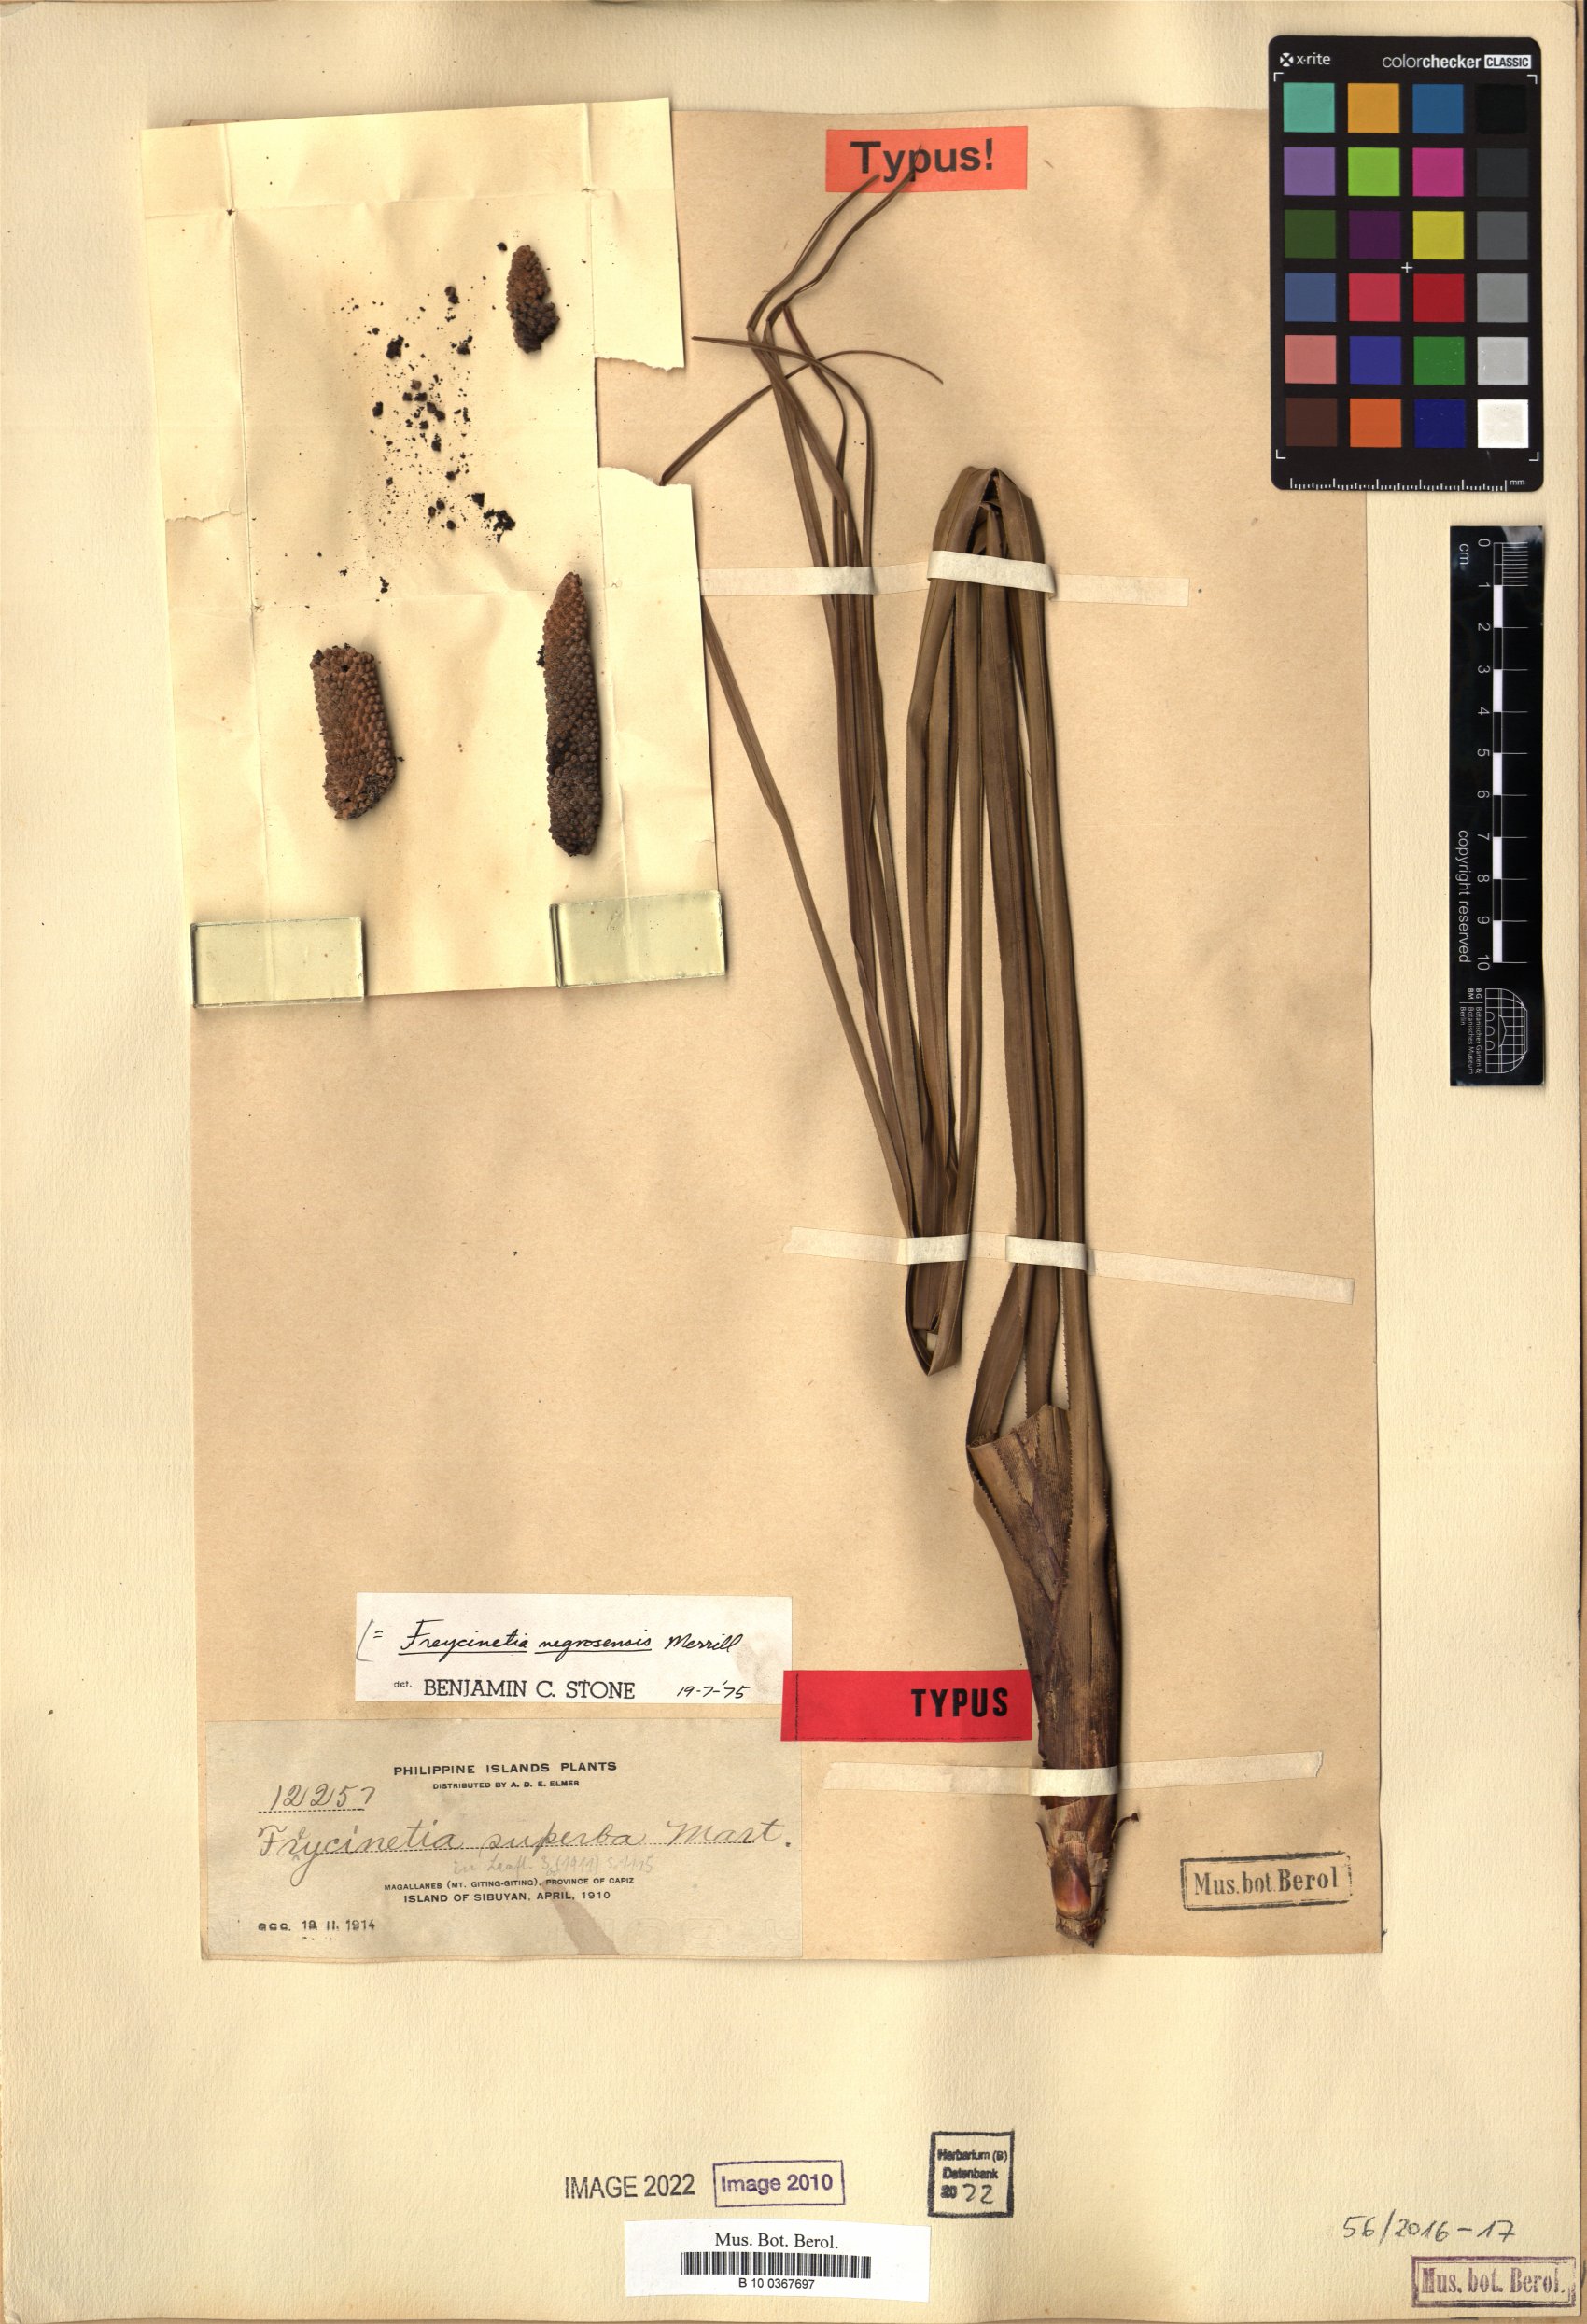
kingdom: Plantae
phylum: Tracheophyta
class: Liliopsida
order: Pandanales
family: Pandanaceae
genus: Freycinetia
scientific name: Freycinetia negrosensis
